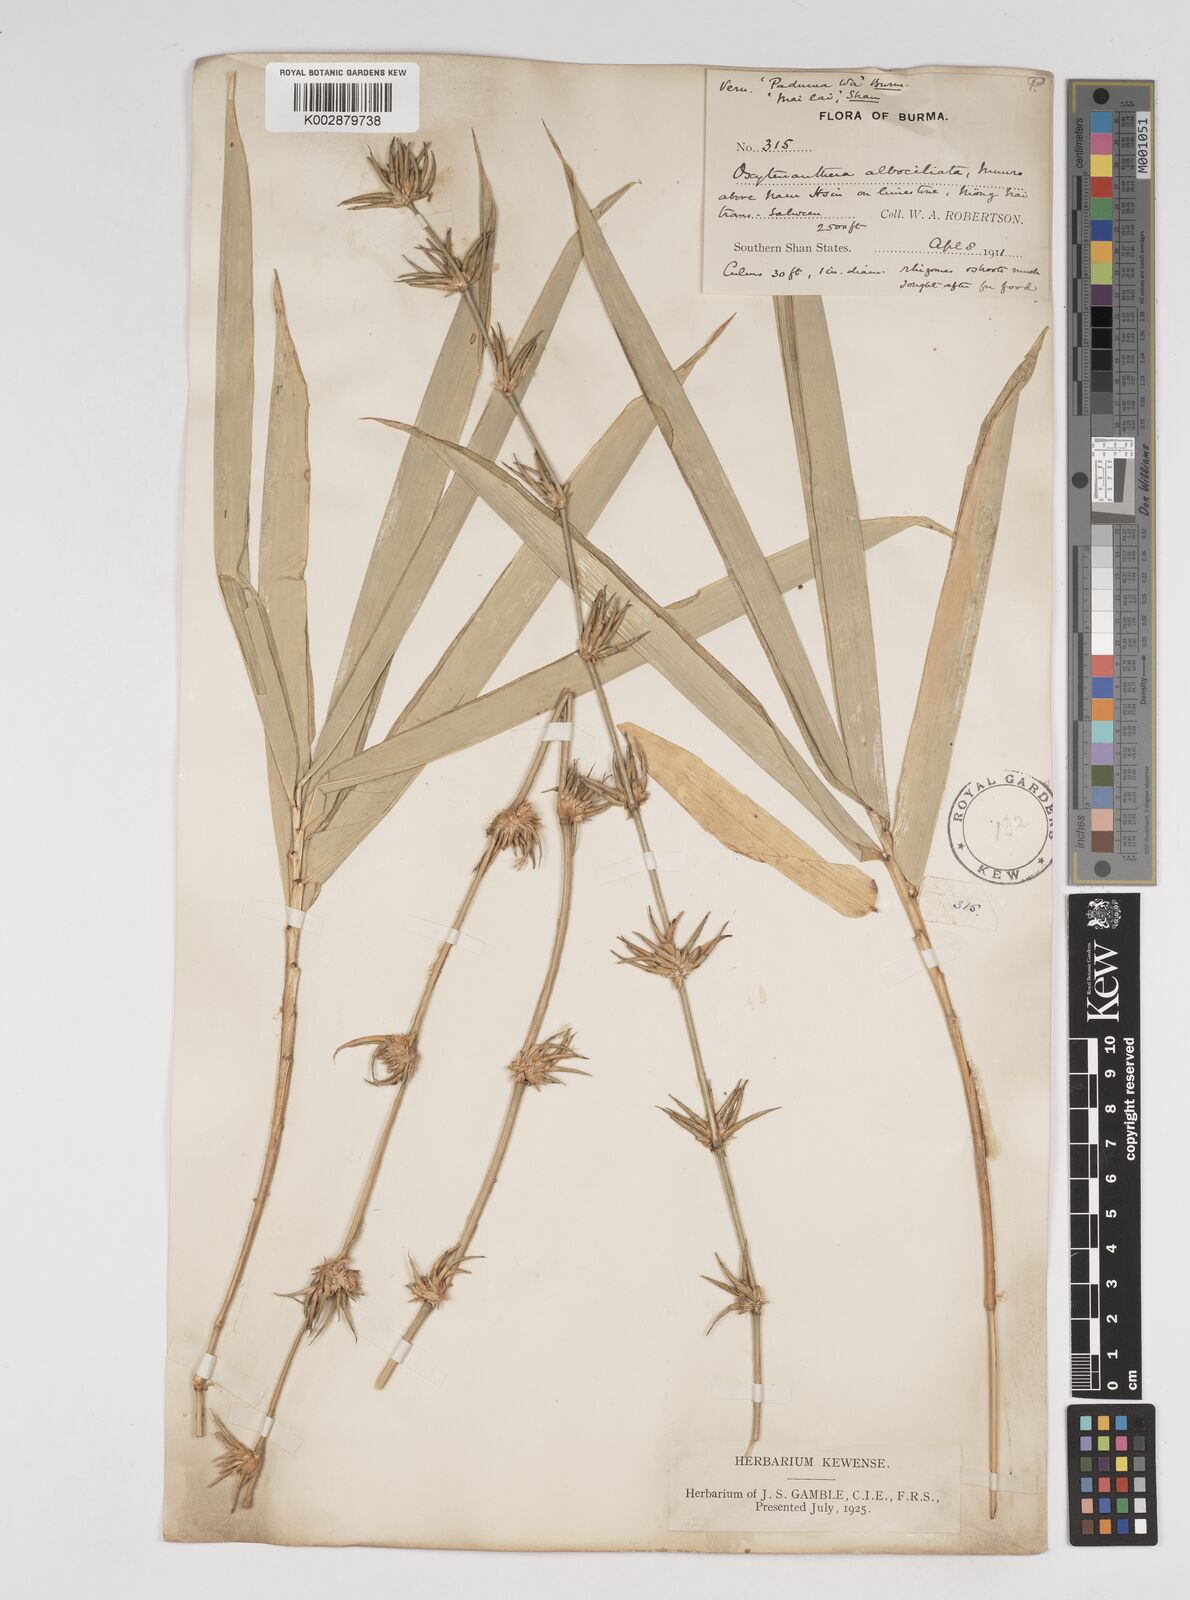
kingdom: Plantae
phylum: Tracheophyta
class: Liliopsida
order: Poales
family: Poaceae
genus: Gigantochloa
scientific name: Gigantochloa albociliata
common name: White-fringe gigantochloa
